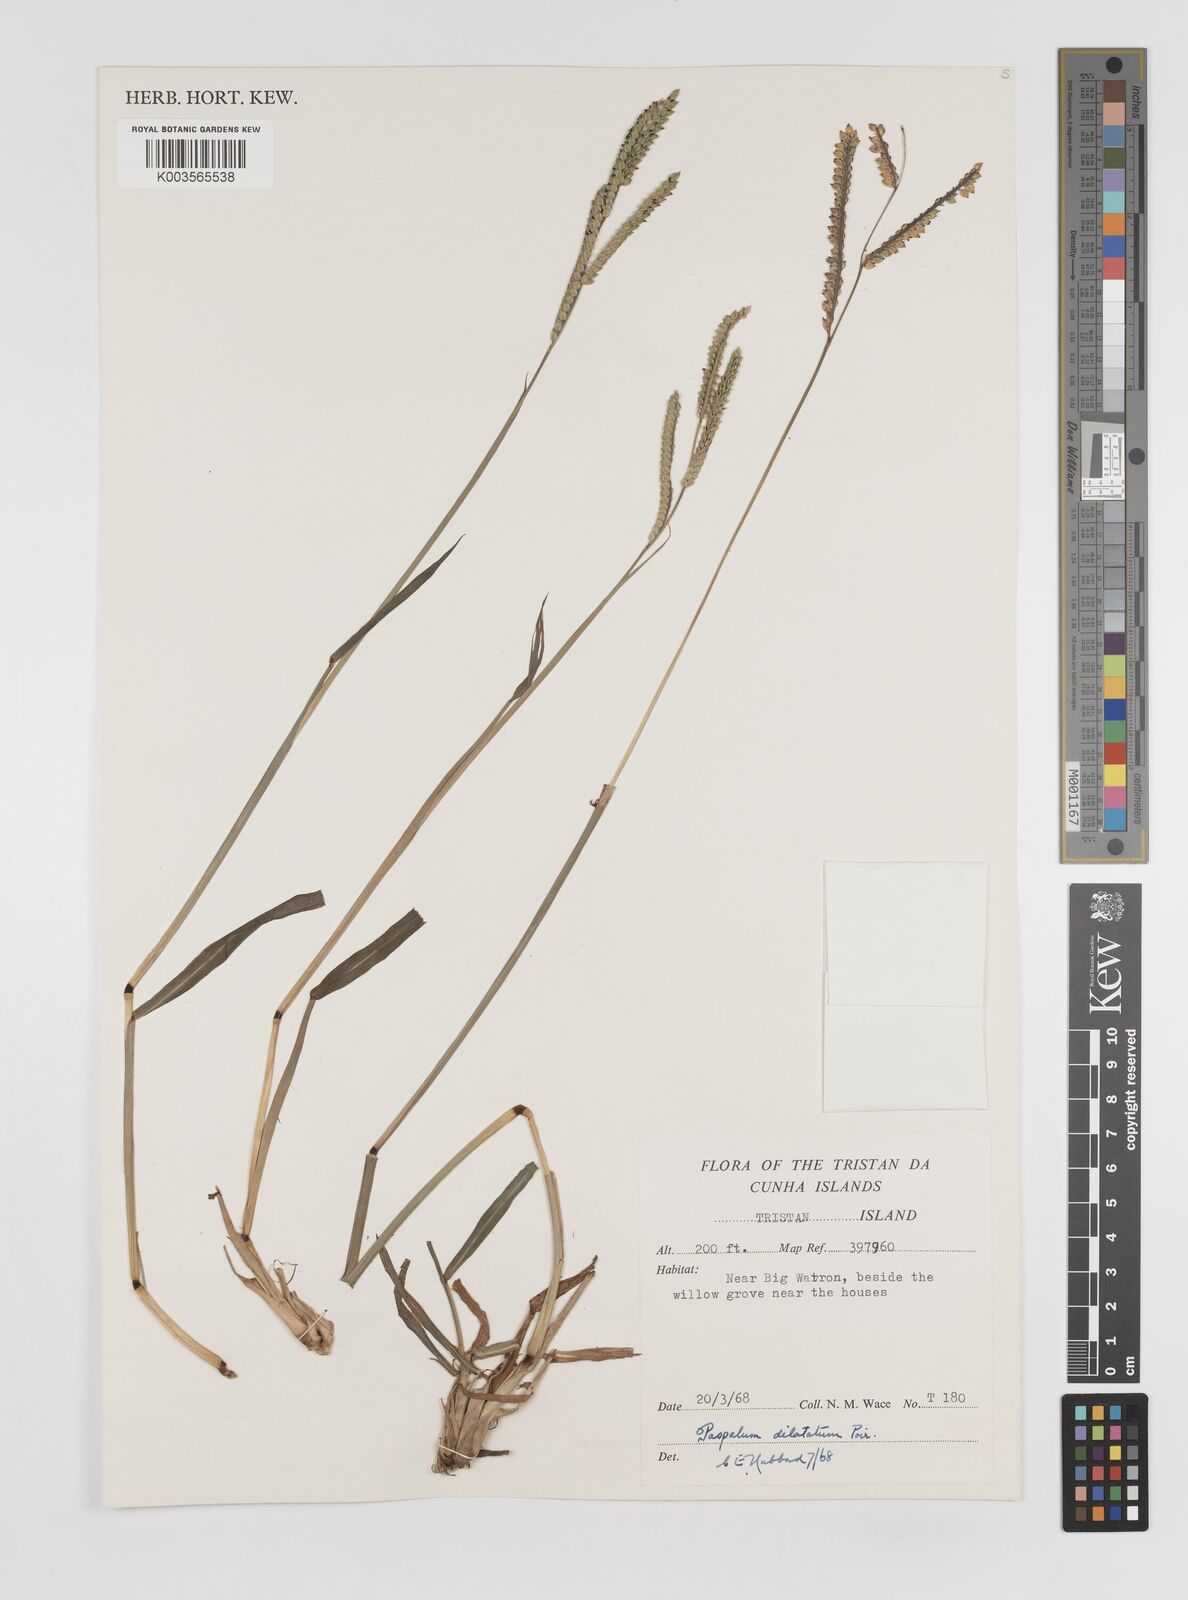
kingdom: Plantae
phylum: Tracheophyta
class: Liliopsida
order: Poales
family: Poaceae
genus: Paspalum
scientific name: Paspalum dilatatum
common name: Dallisgrass
